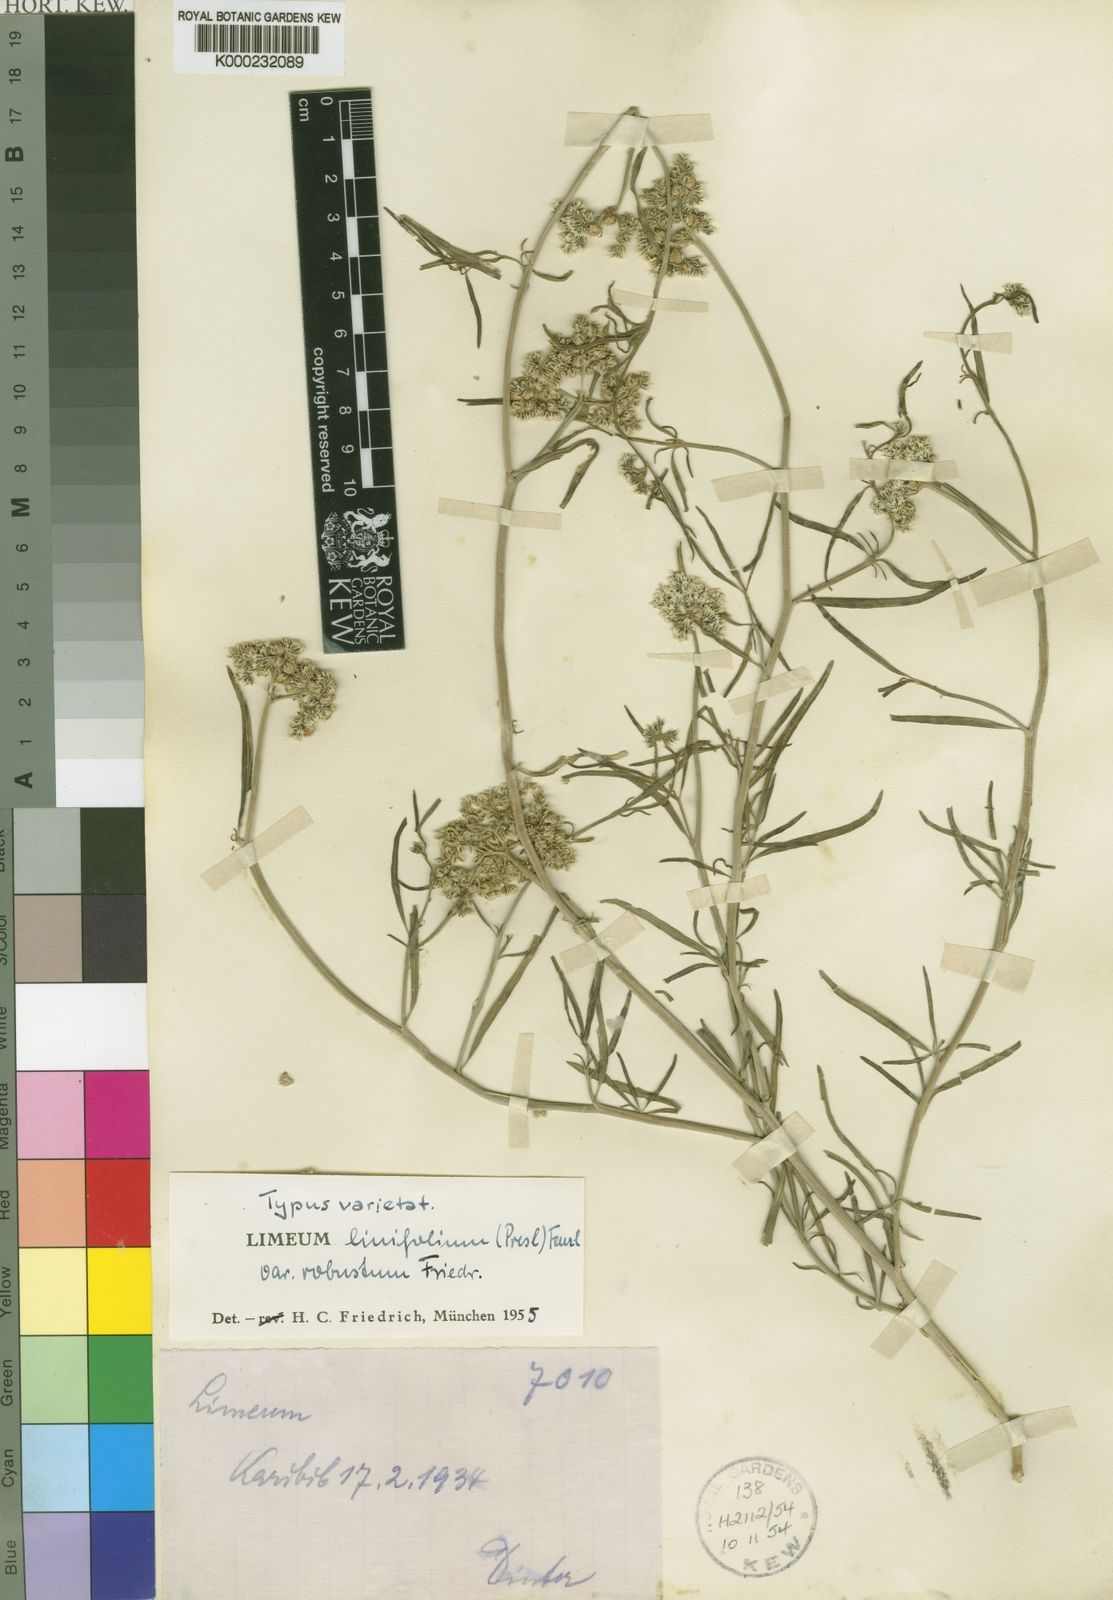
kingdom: Plantae
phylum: Tracheophyta
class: Magnoliopsida
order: Caryophyllales
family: Limeaceae
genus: Limeum
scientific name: Limeum
